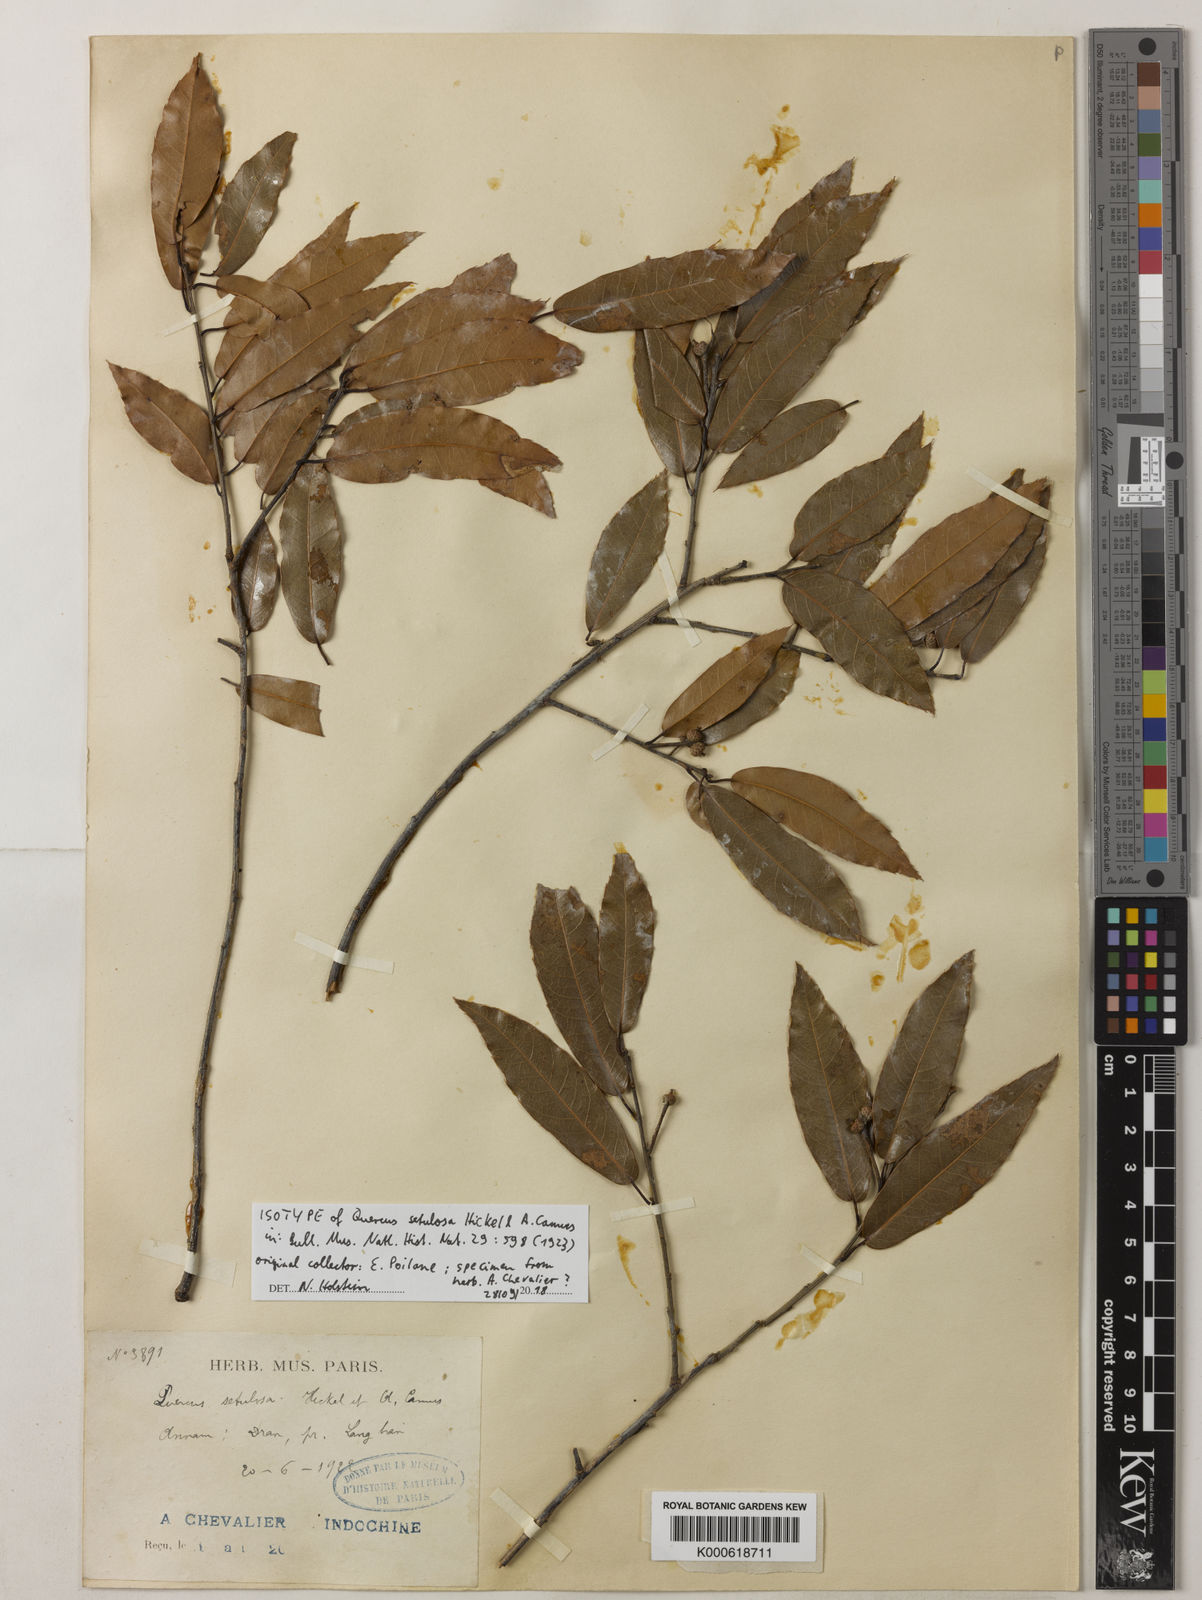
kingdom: Plantae
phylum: Tracheophyta
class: Magnoliopsida
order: Fagales
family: Fagaceae
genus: Quercus
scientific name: Quercus setulosa
